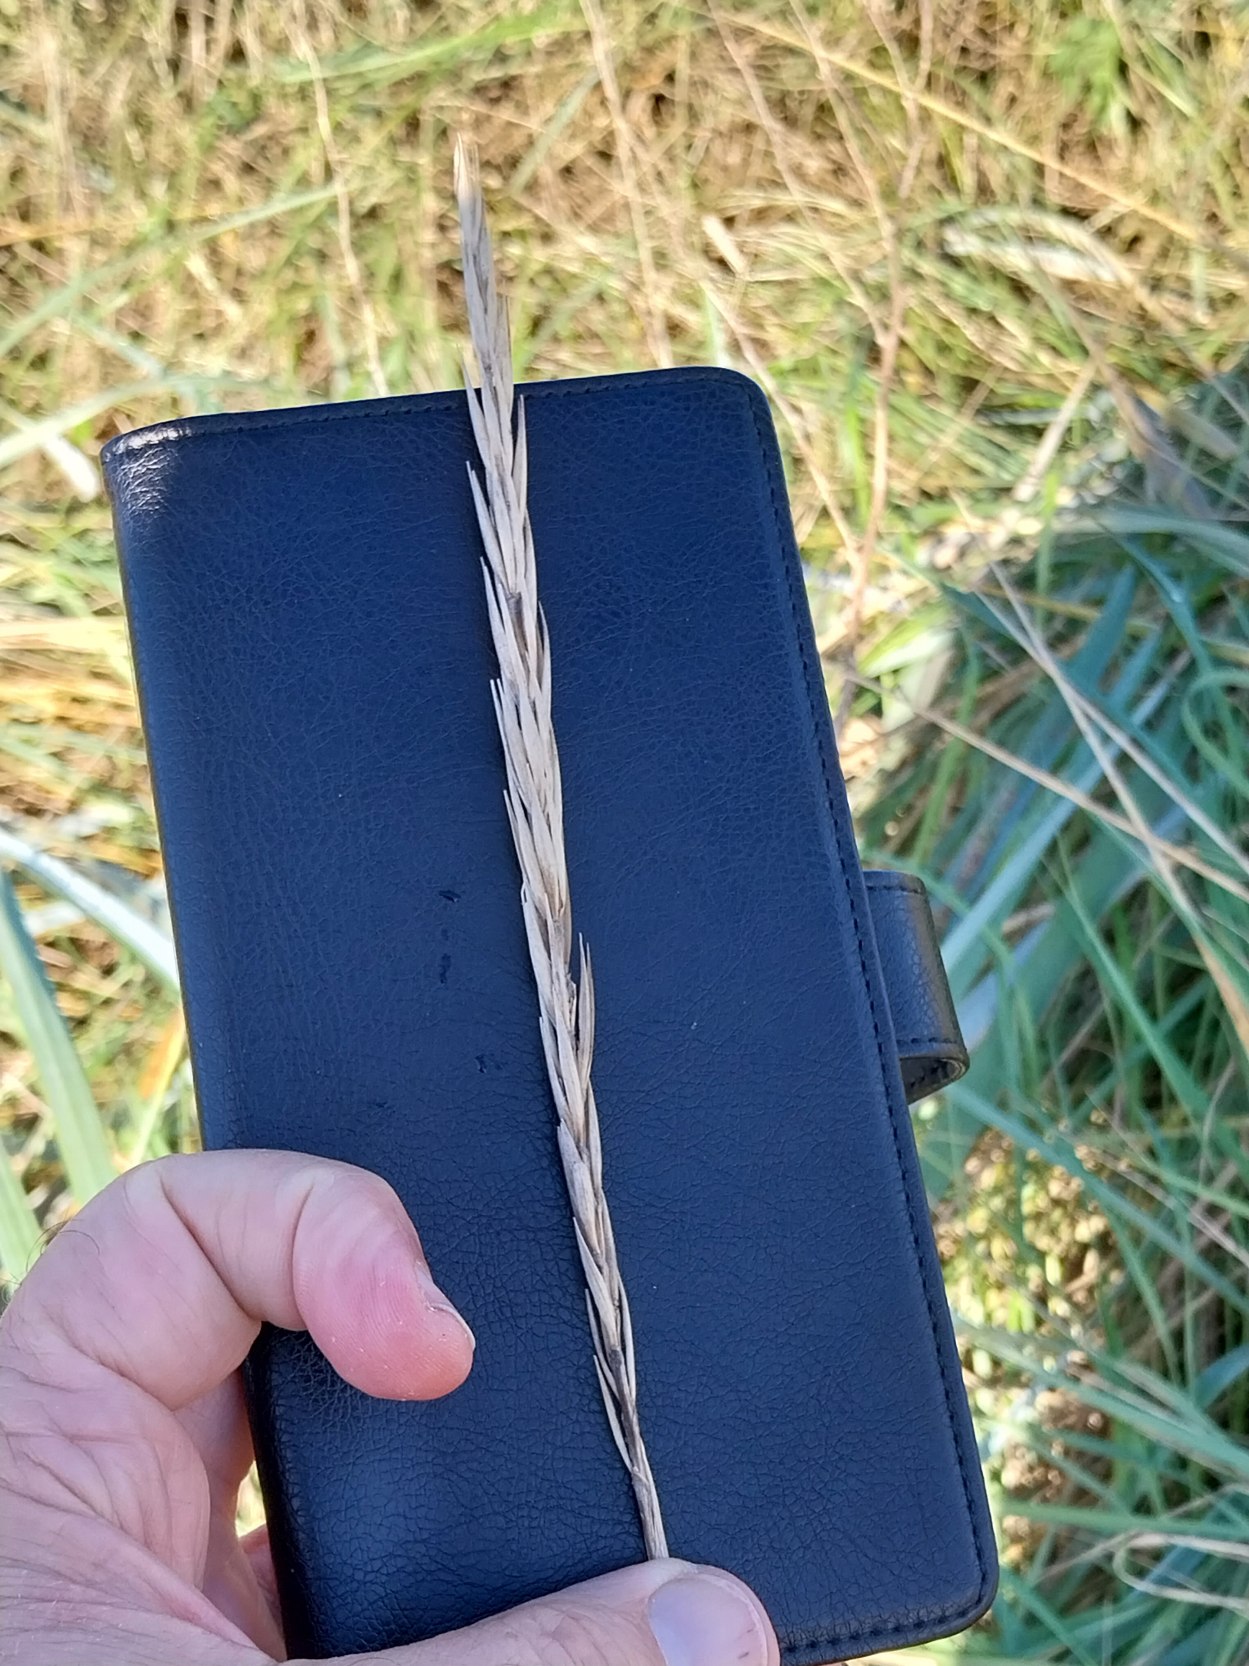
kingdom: Plantae
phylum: Tracheophyta
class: Liliopsida
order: Poales
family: Poaceae
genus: Leymus
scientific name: Leymus arenarius
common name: Marehalm
